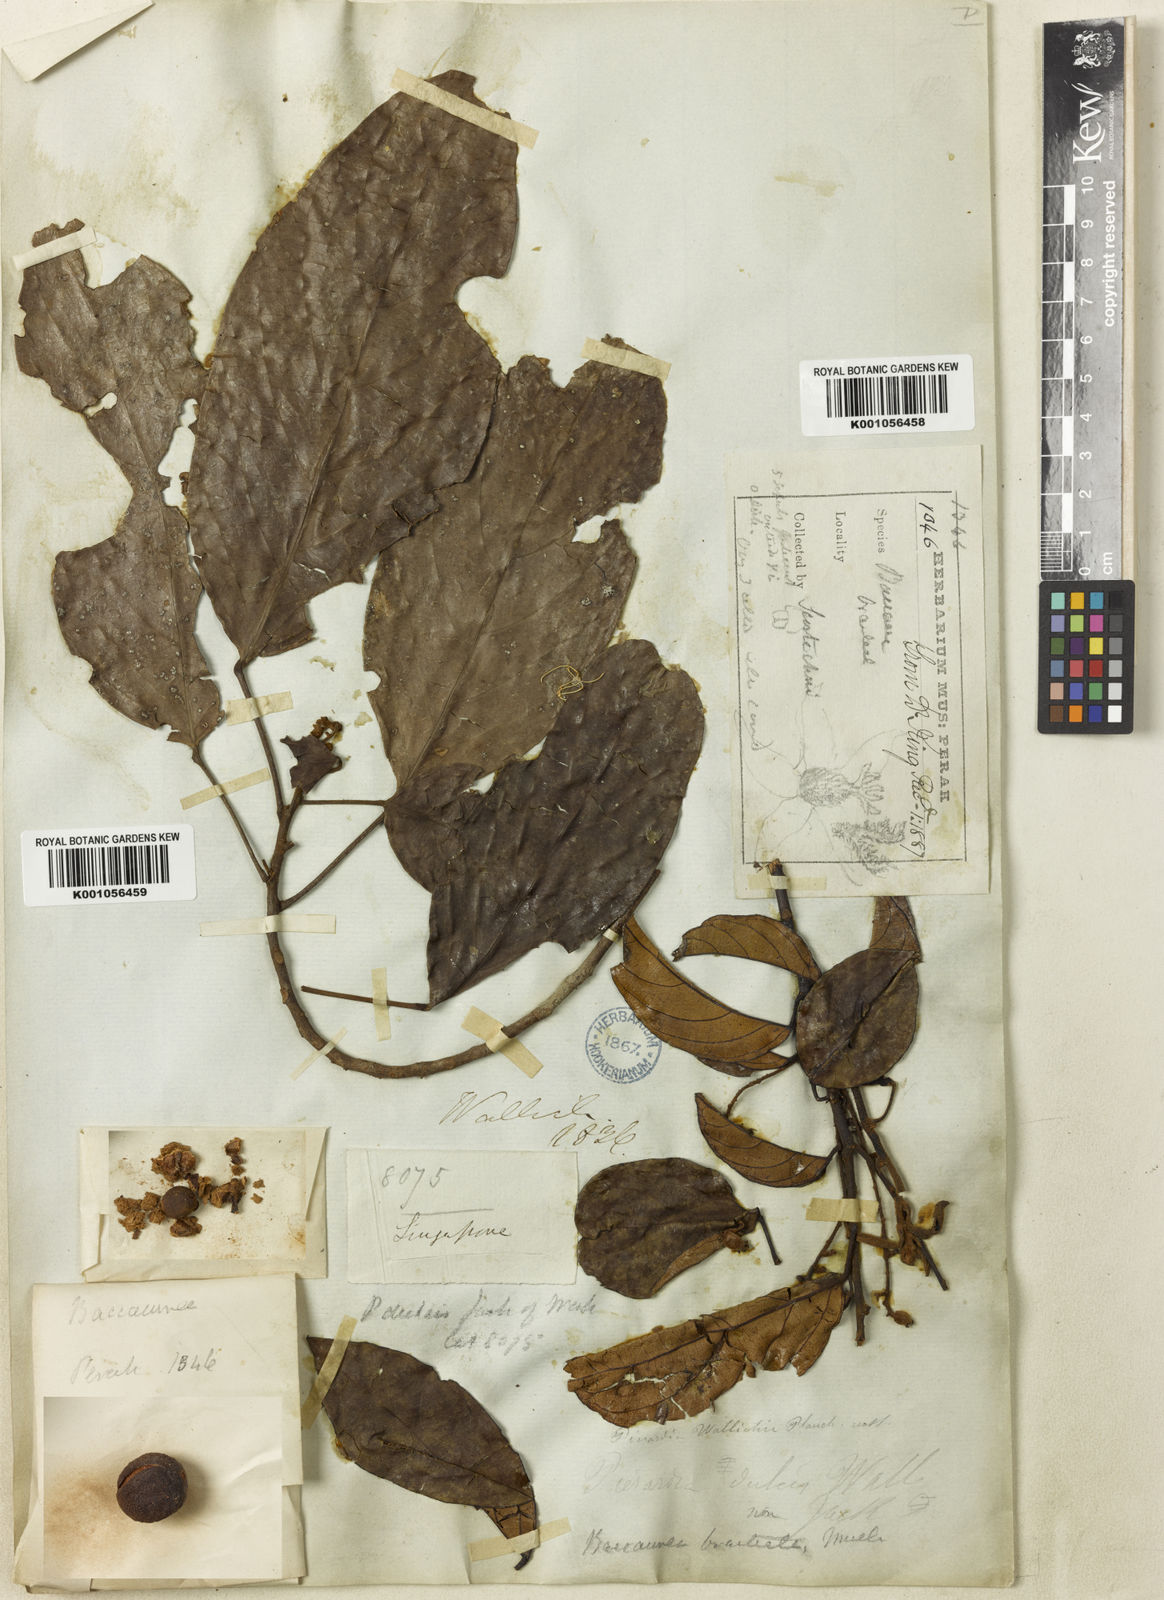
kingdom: Plantae
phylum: Tracheophyta
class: Magnoliopsida
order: Malpighiales
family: Phyllanthaceae
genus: Baccaurea
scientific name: Baccaurea
